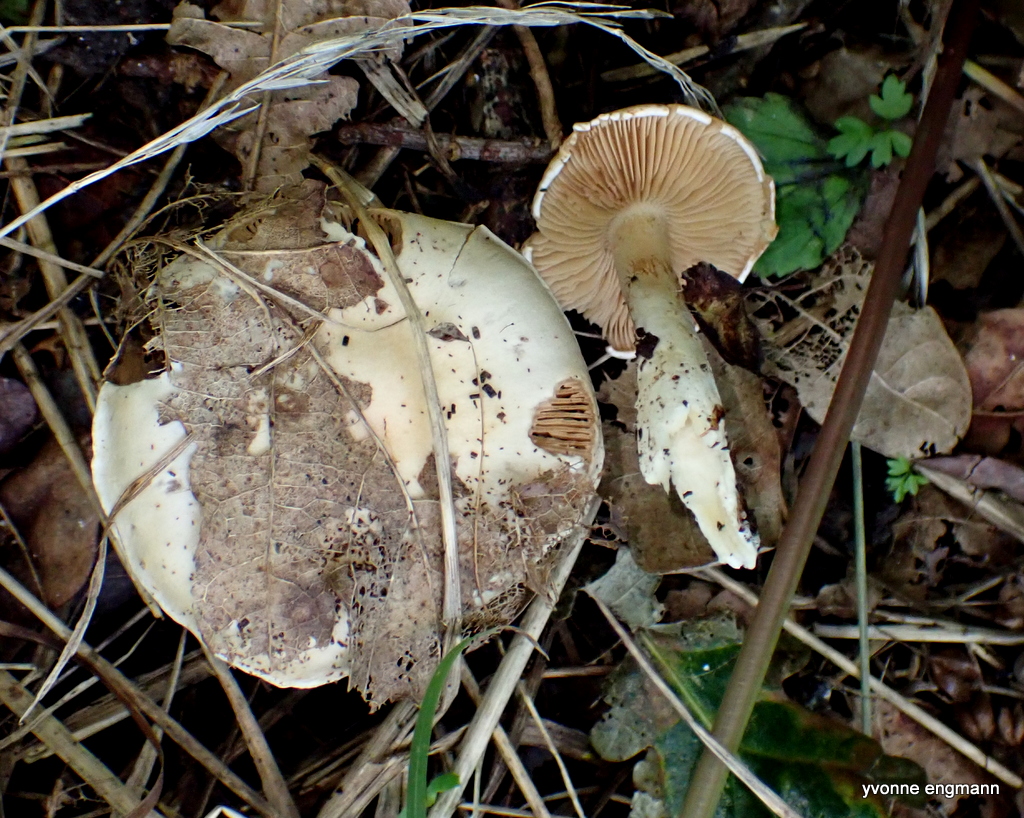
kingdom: Fungi
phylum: Basidiomycota
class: Agaricomycetes
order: Agaricales
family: Cortinariaceae
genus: Thaxterogaster
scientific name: Thaxterogaster
